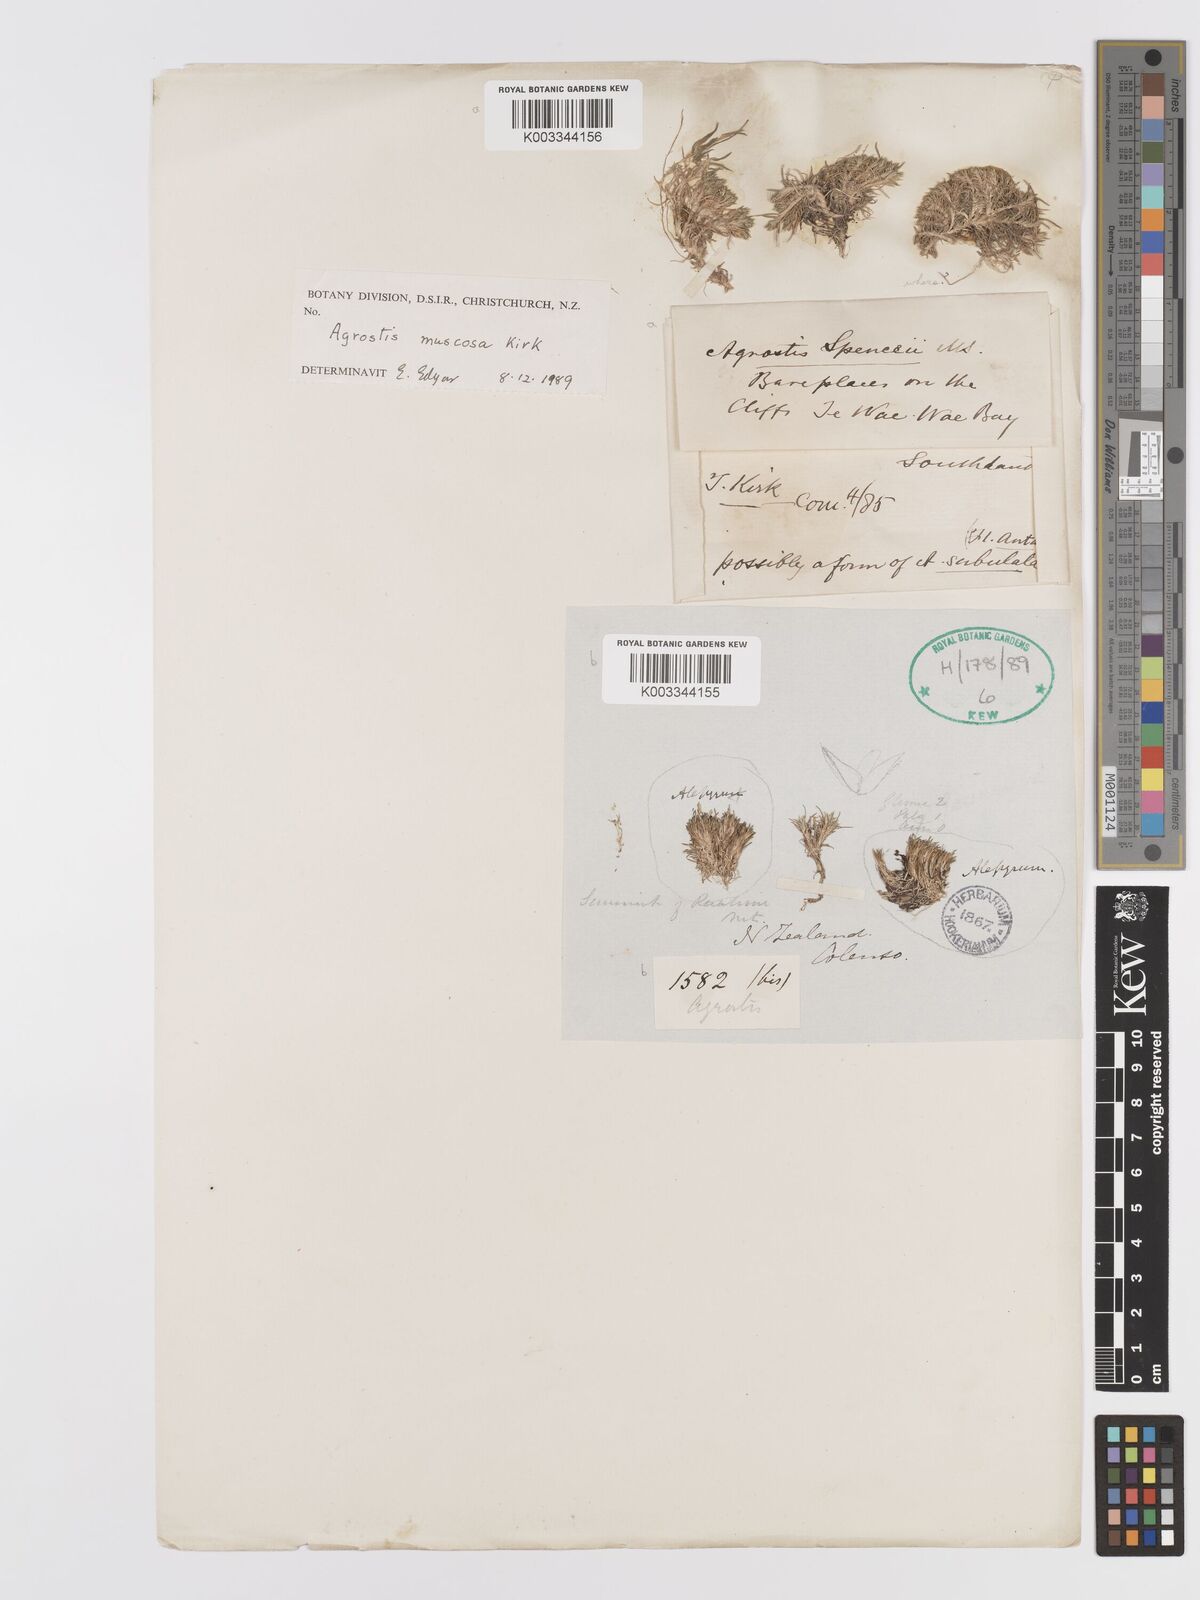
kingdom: Plantae
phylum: Tracheophyta
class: Liliopsida
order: Poales
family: Poaceae
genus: Agrostis
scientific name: Agrostis muscosa
